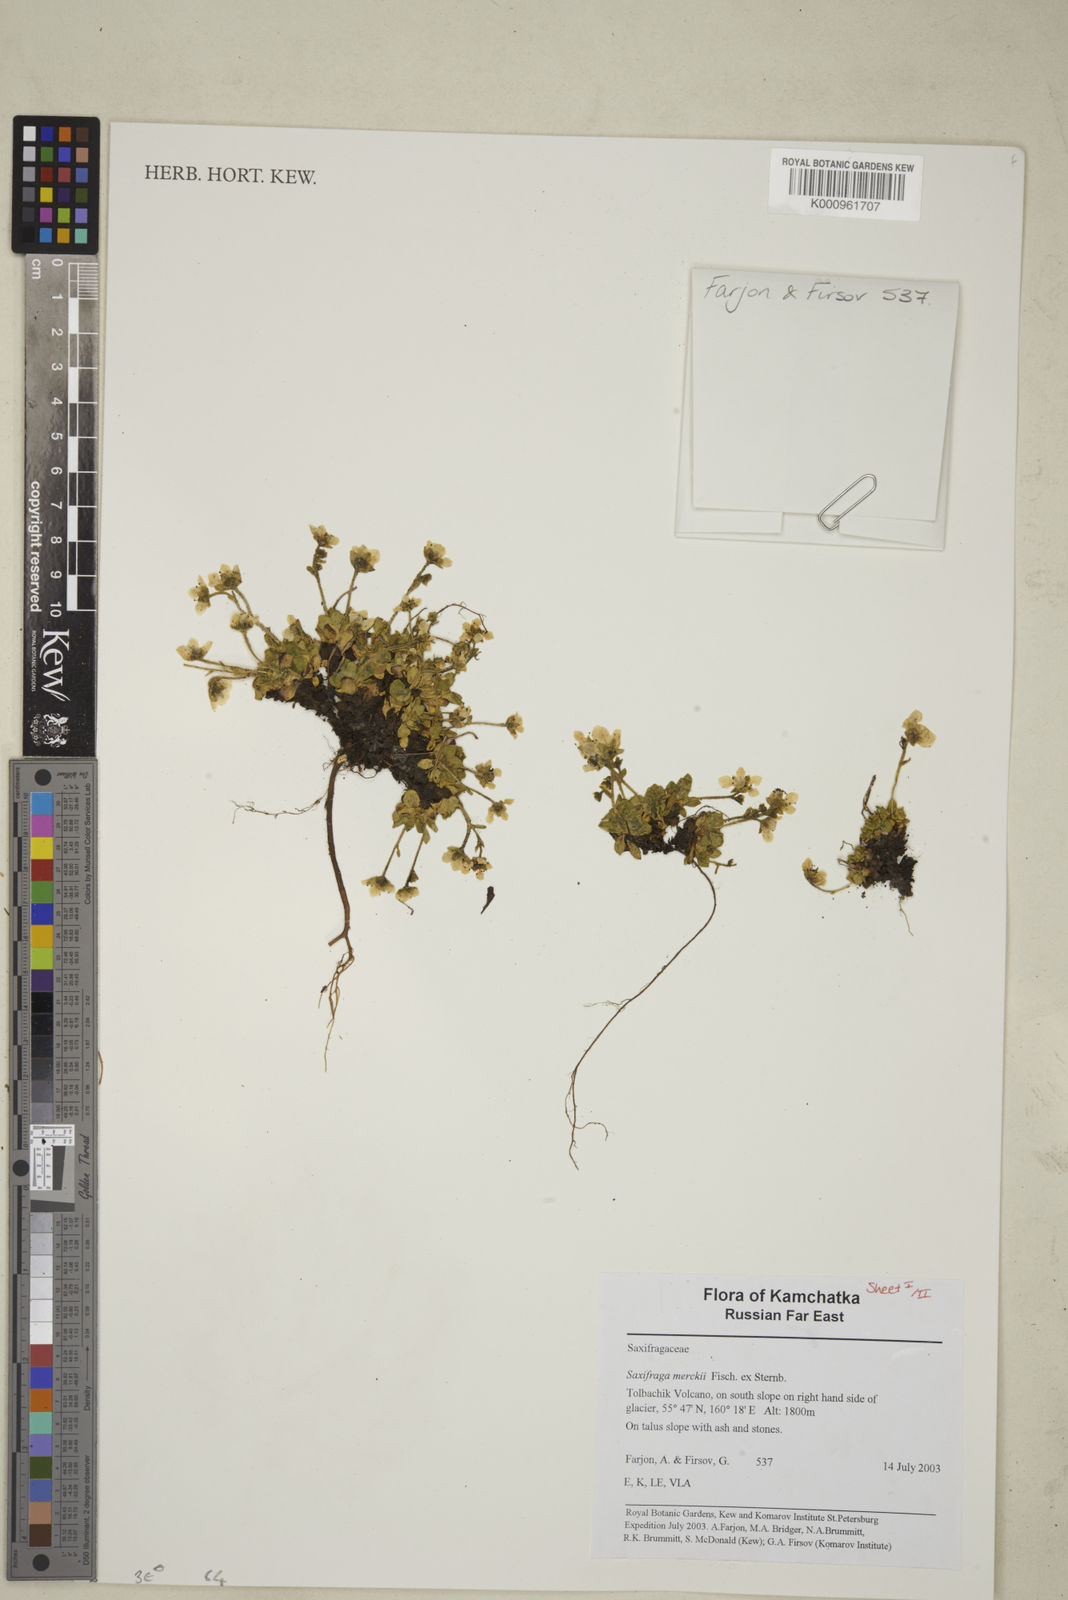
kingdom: Plantae
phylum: Tracheophyta
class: Magnoliopsida
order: Saxifragales
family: Saxifragaceae
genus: Micranthes
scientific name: Micranthes merkii
